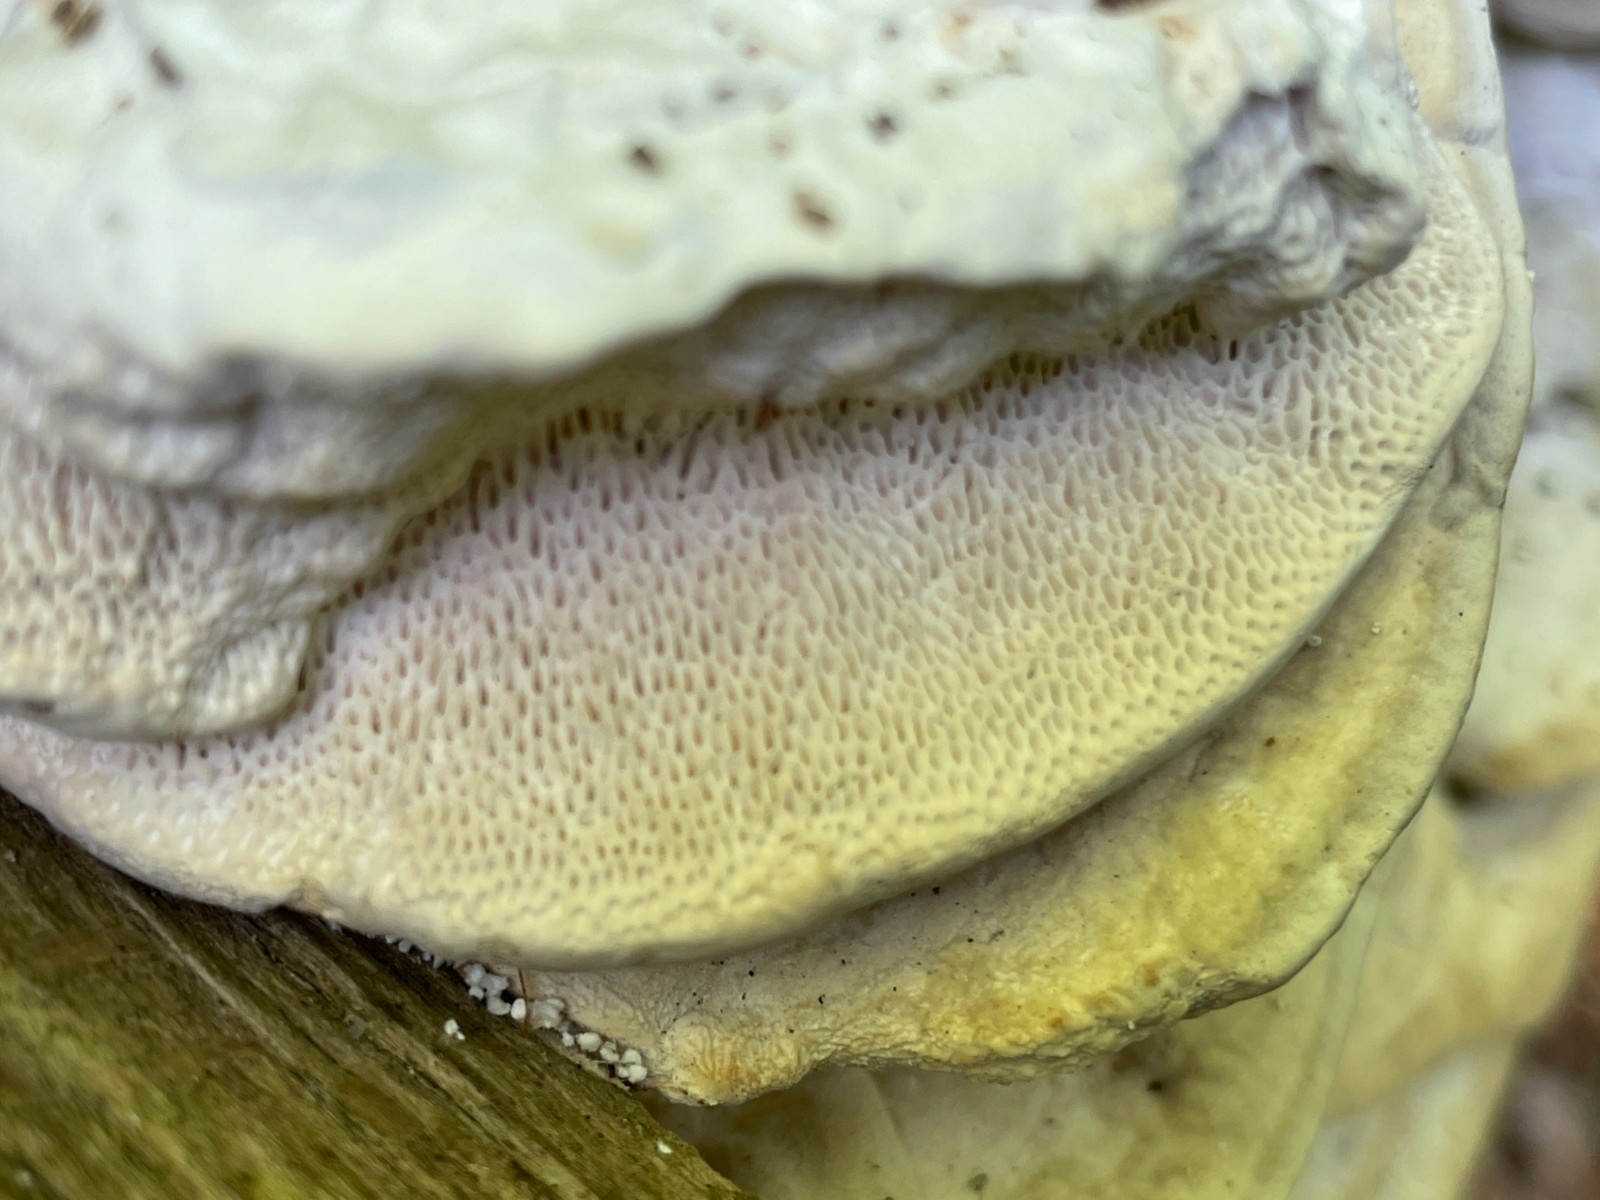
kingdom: Fungi
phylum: Basidiomycota
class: Agaricomycetes
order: Polyporales
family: Polyporaceae
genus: Trametes
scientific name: Trametes gibbosa
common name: puklet læderporesvamp
